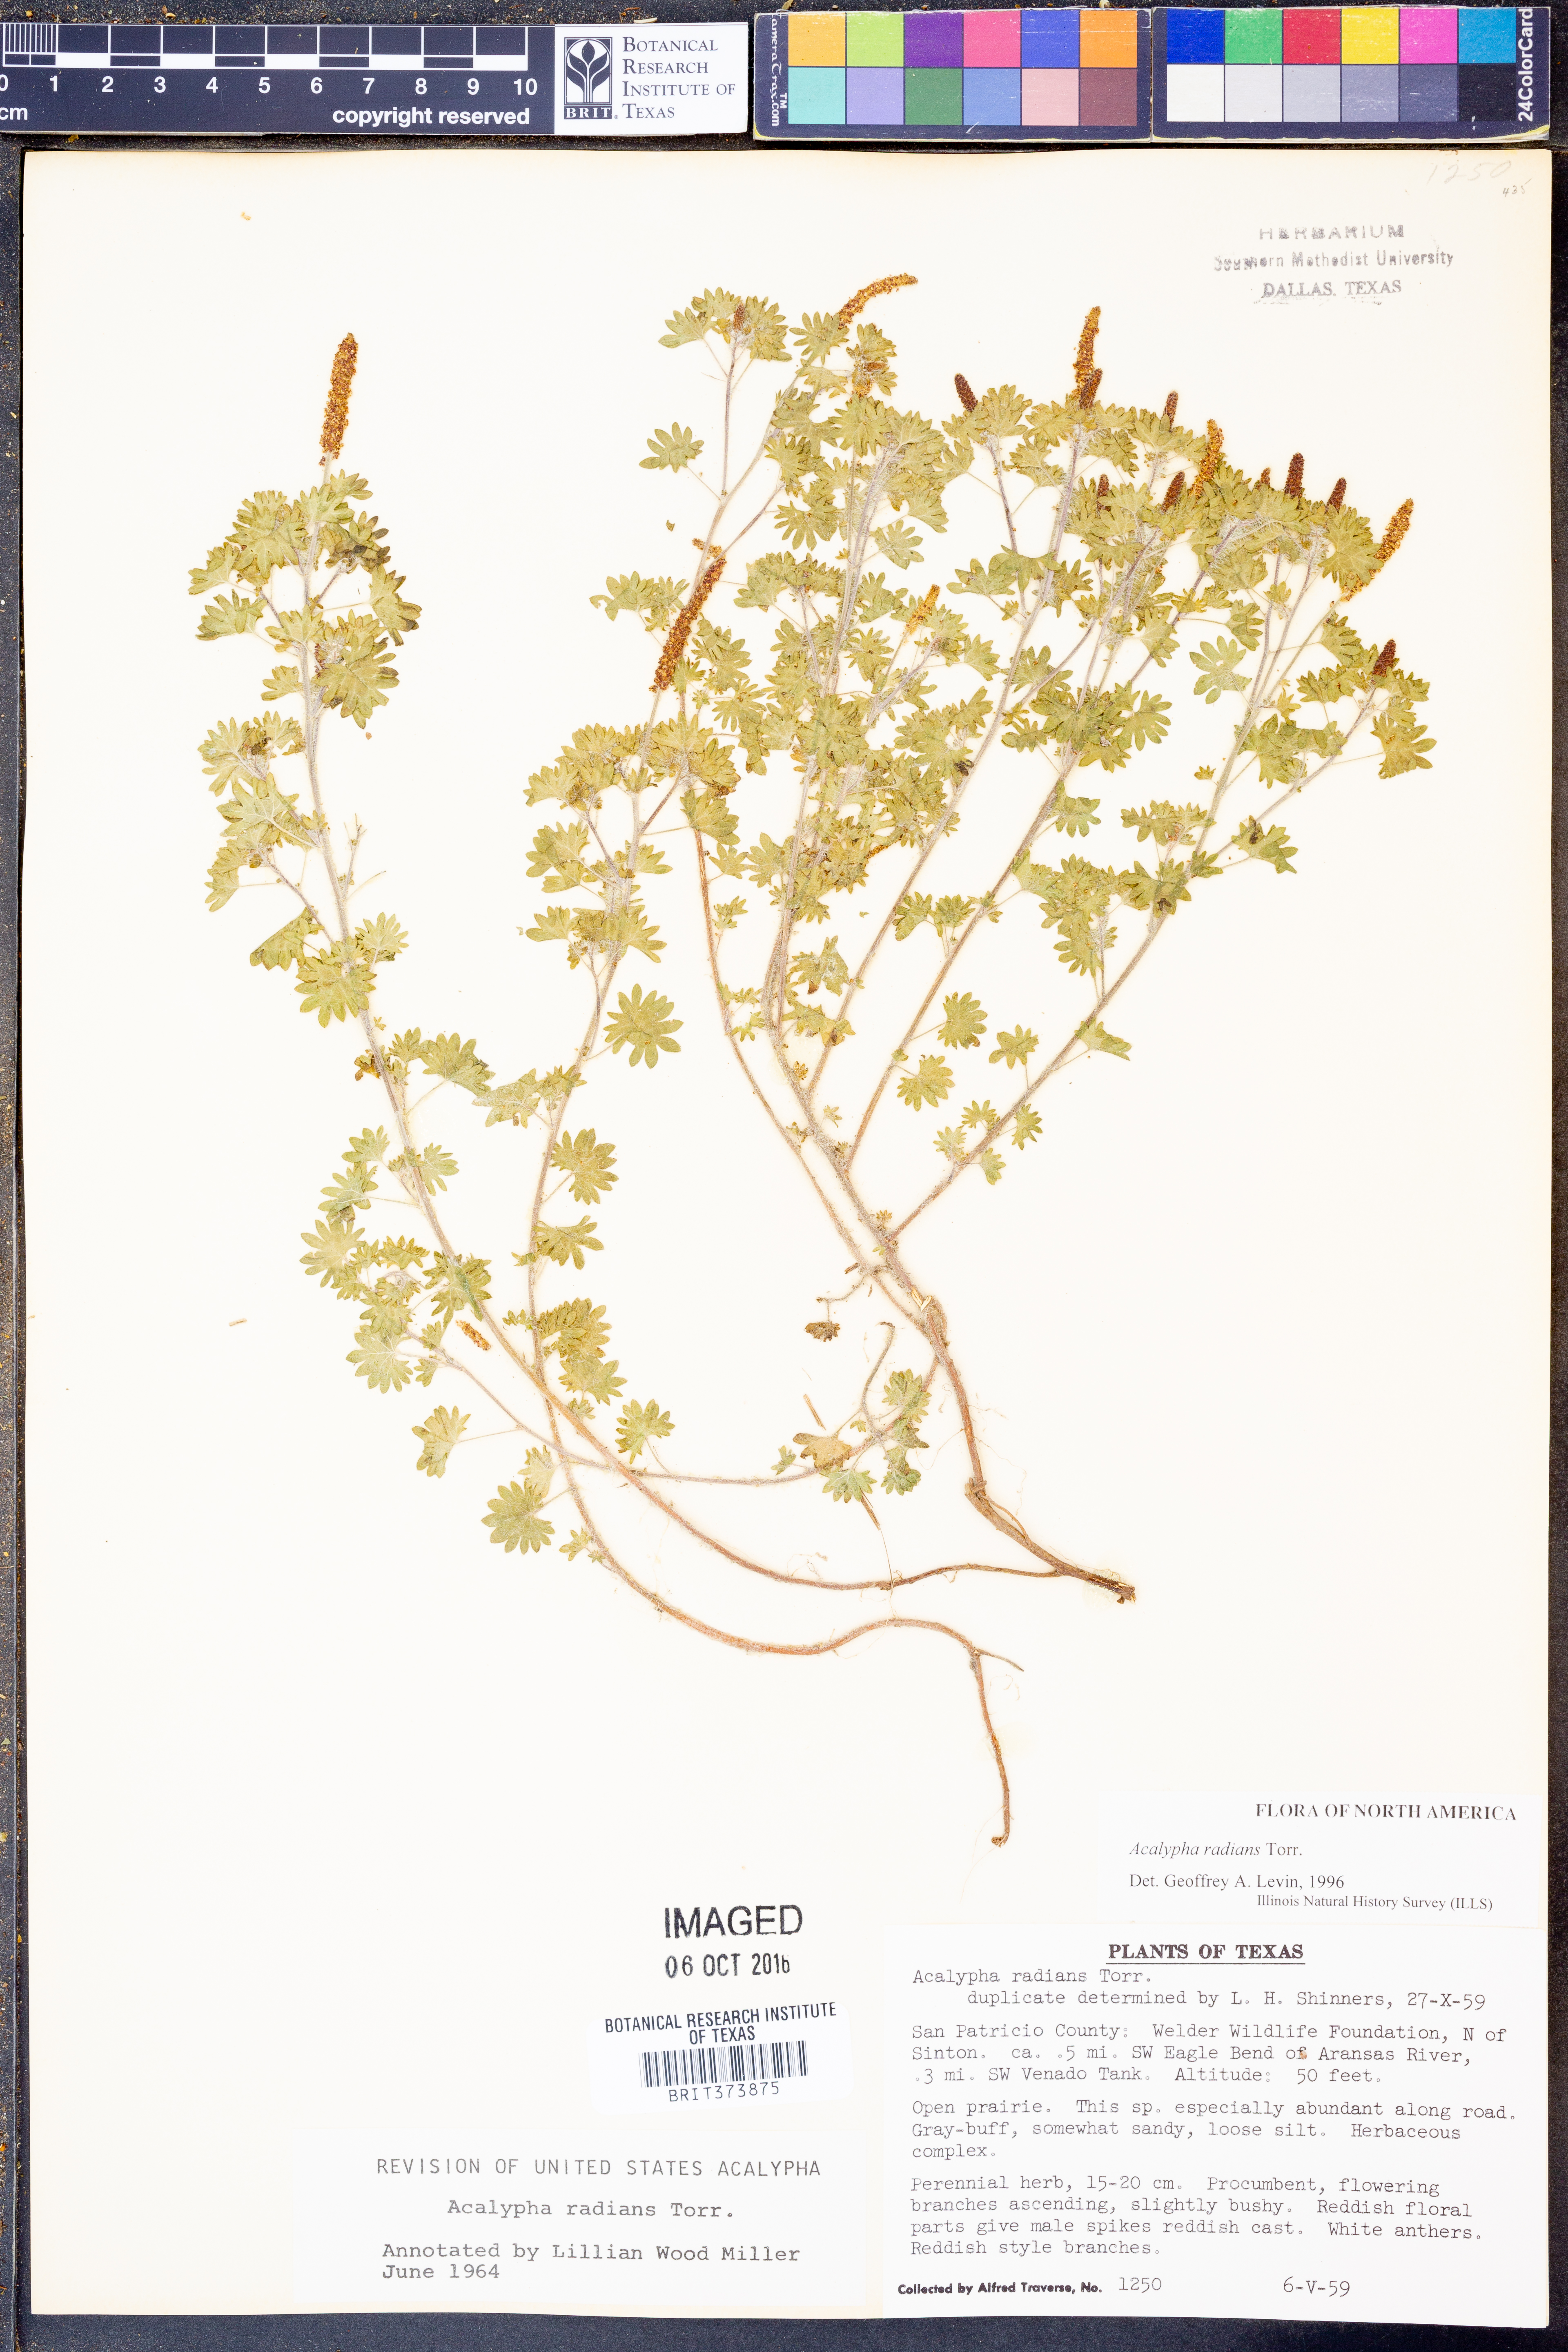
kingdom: Plantae
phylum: Tracheophyta
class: Magnoliopsida
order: Malpighiales
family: Euphorbiaceae
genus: Acalypha
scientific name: Acalypha radians
